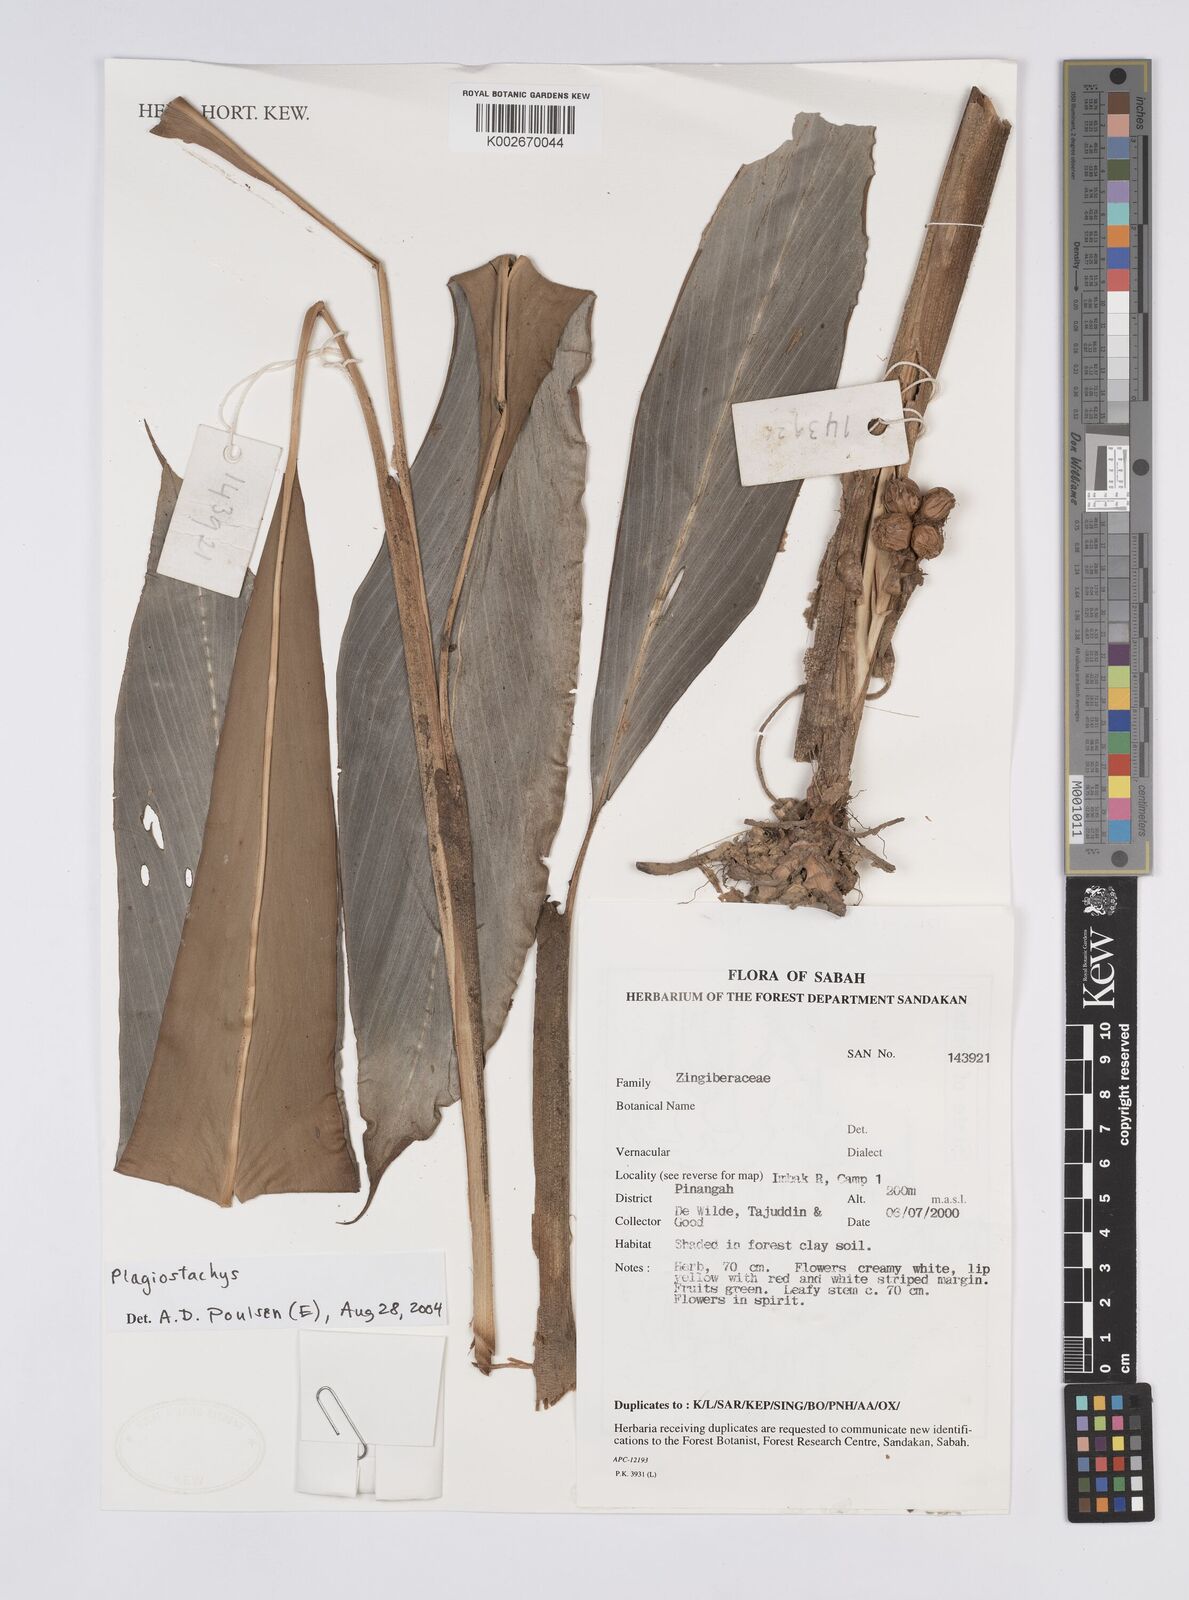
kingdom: Plantae
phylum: Tracheophyta
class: Liliopsida
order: Zingiberales
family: Zingiberaceae
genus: Plagiostachys
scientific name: Plagiostachys
